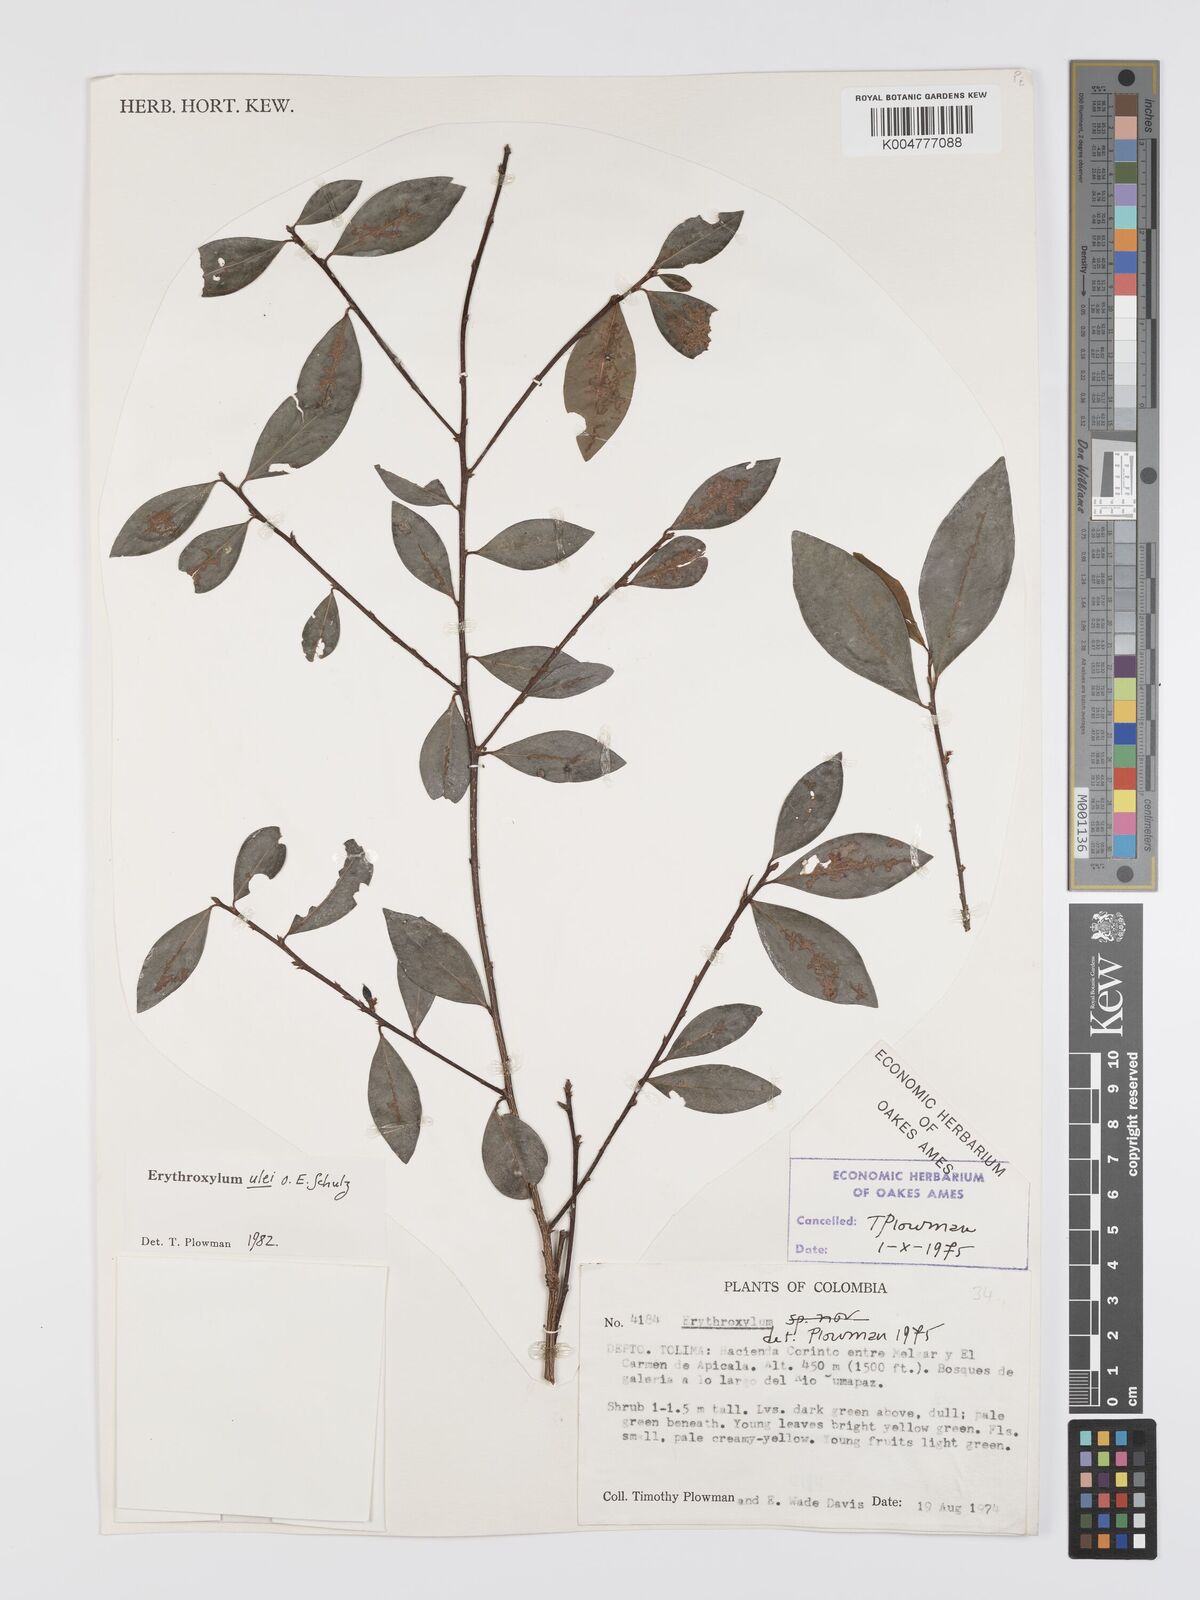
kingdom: Plantae
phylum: Tracheophyta
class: Magnoliopsida
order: Malpighiales
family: Erythroxylaceae
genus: Erythroxylum
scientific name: Erythroxylum ulei
